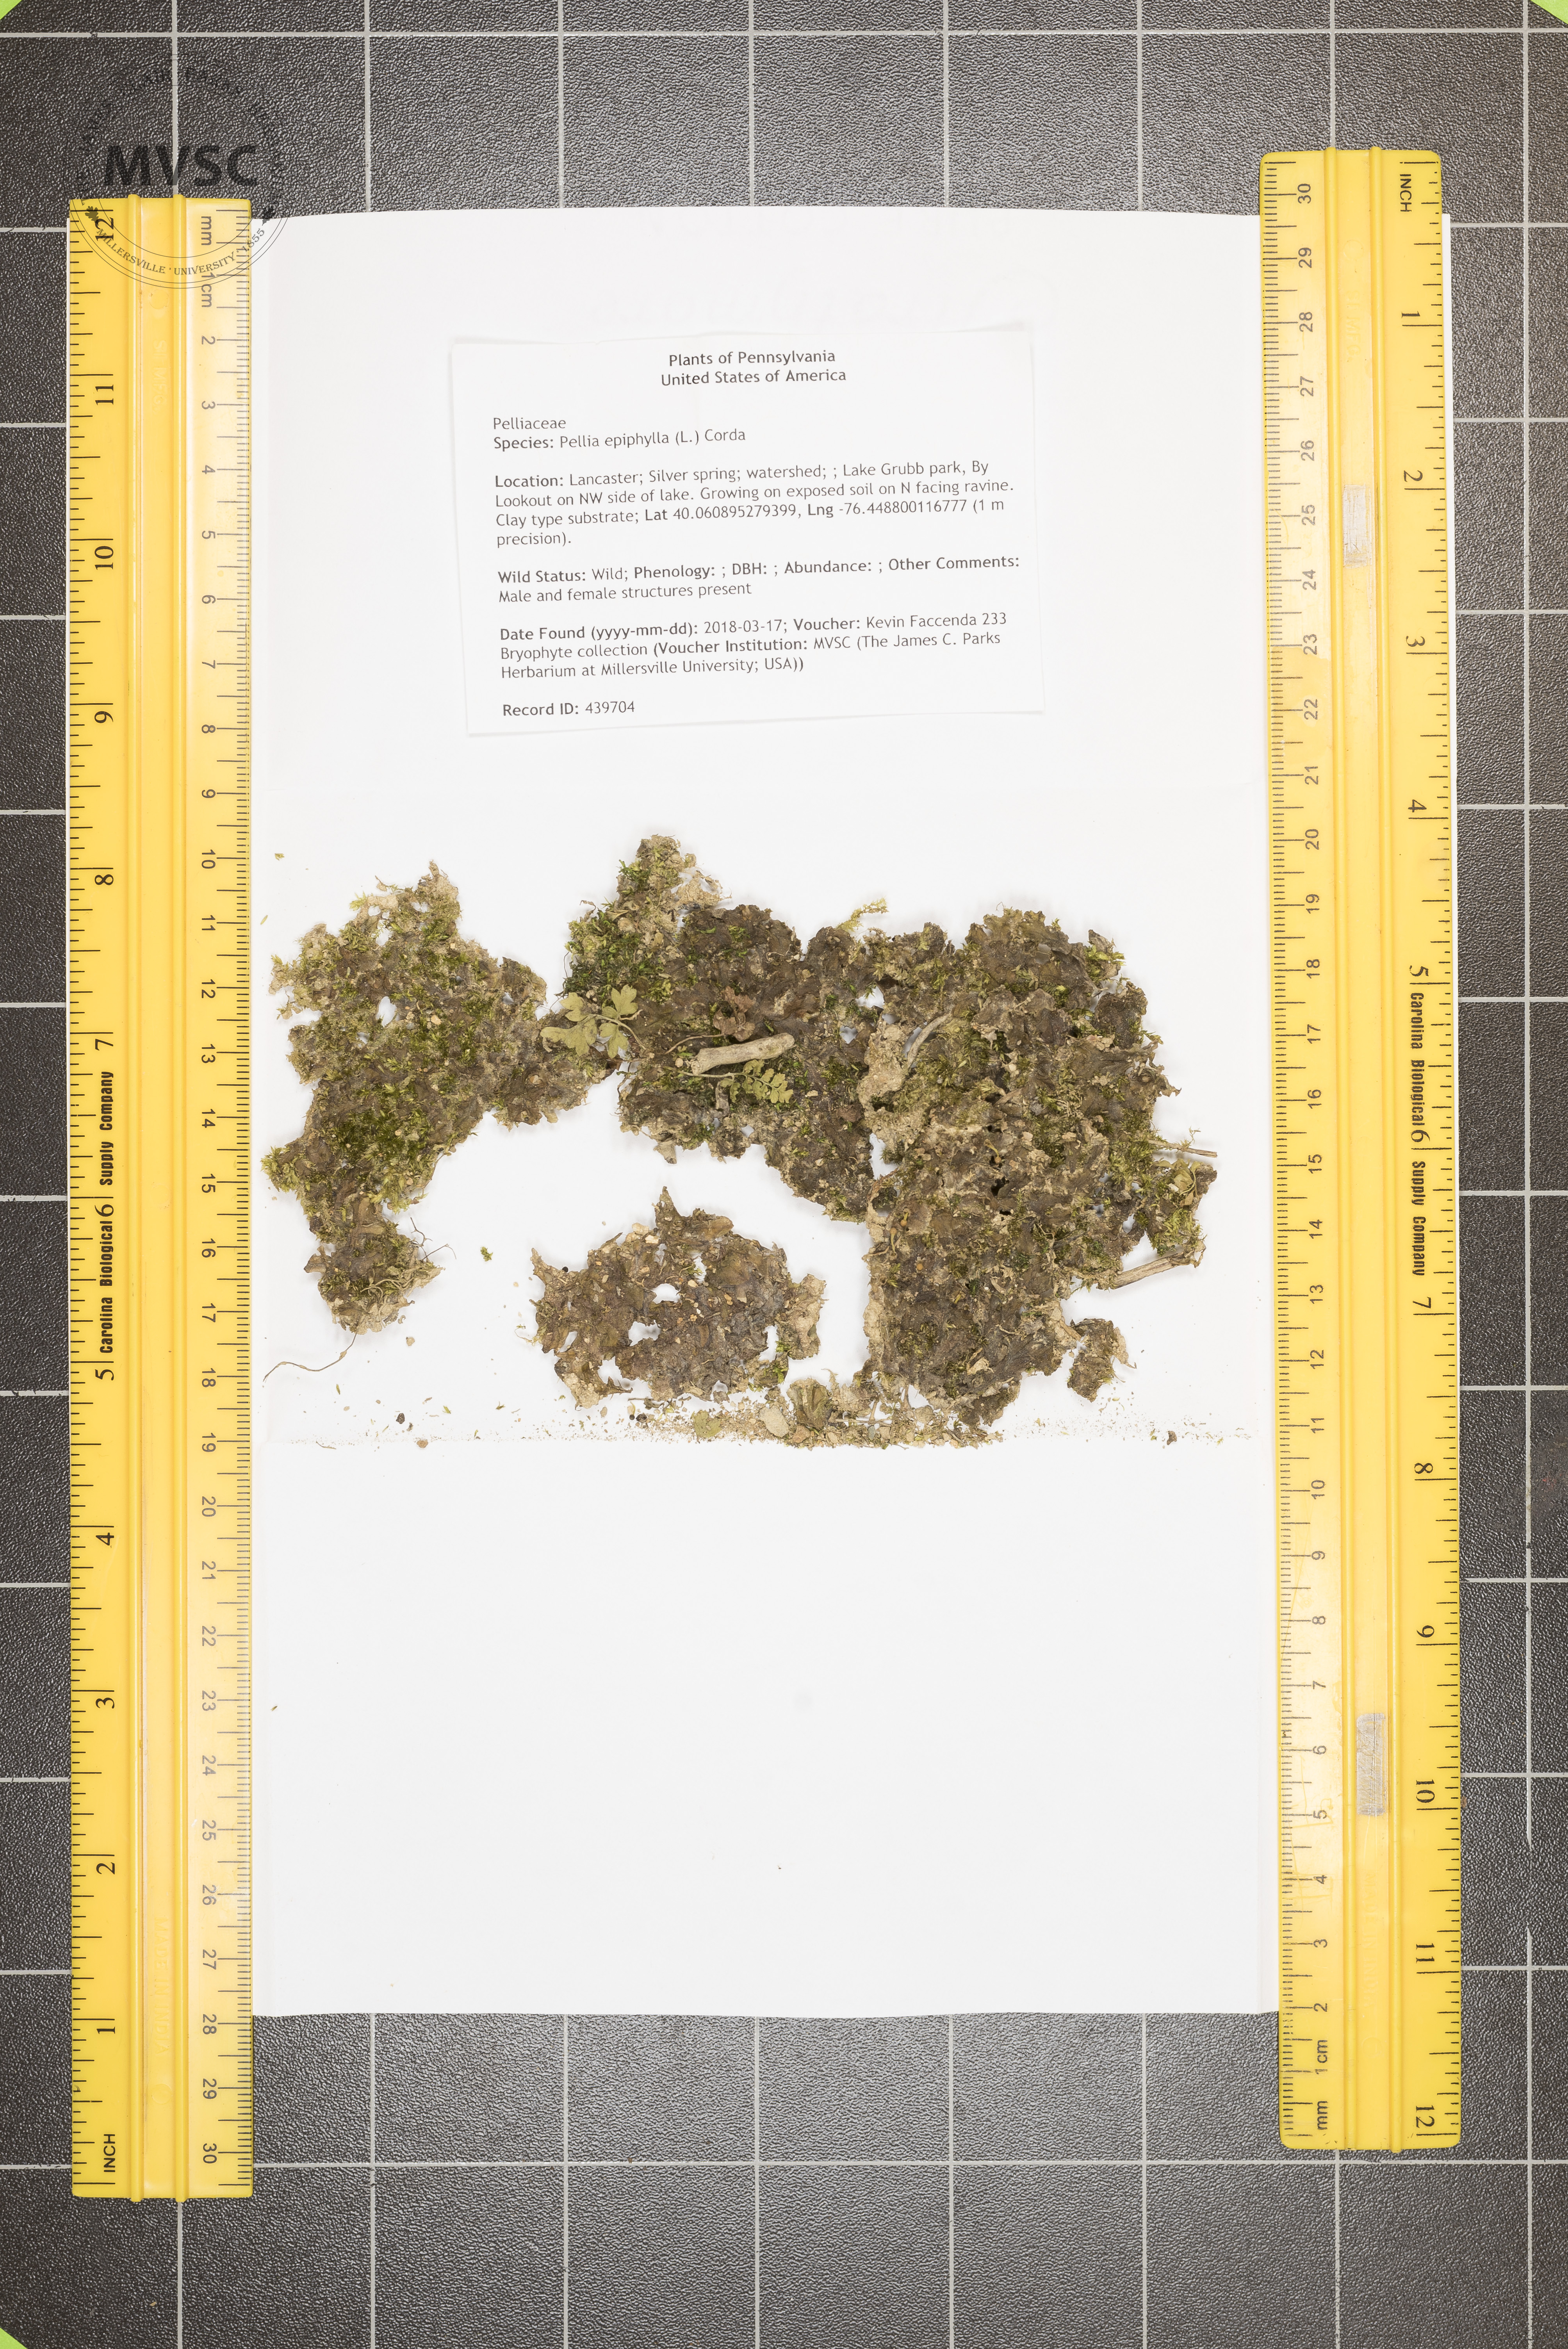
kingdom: Plantae
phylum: Marchantiophyta
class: Jungermanniopsida
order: Pelliales
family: Pelliaceae
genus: Pellia
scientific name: Pellia epiphylla
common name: Common pellia
